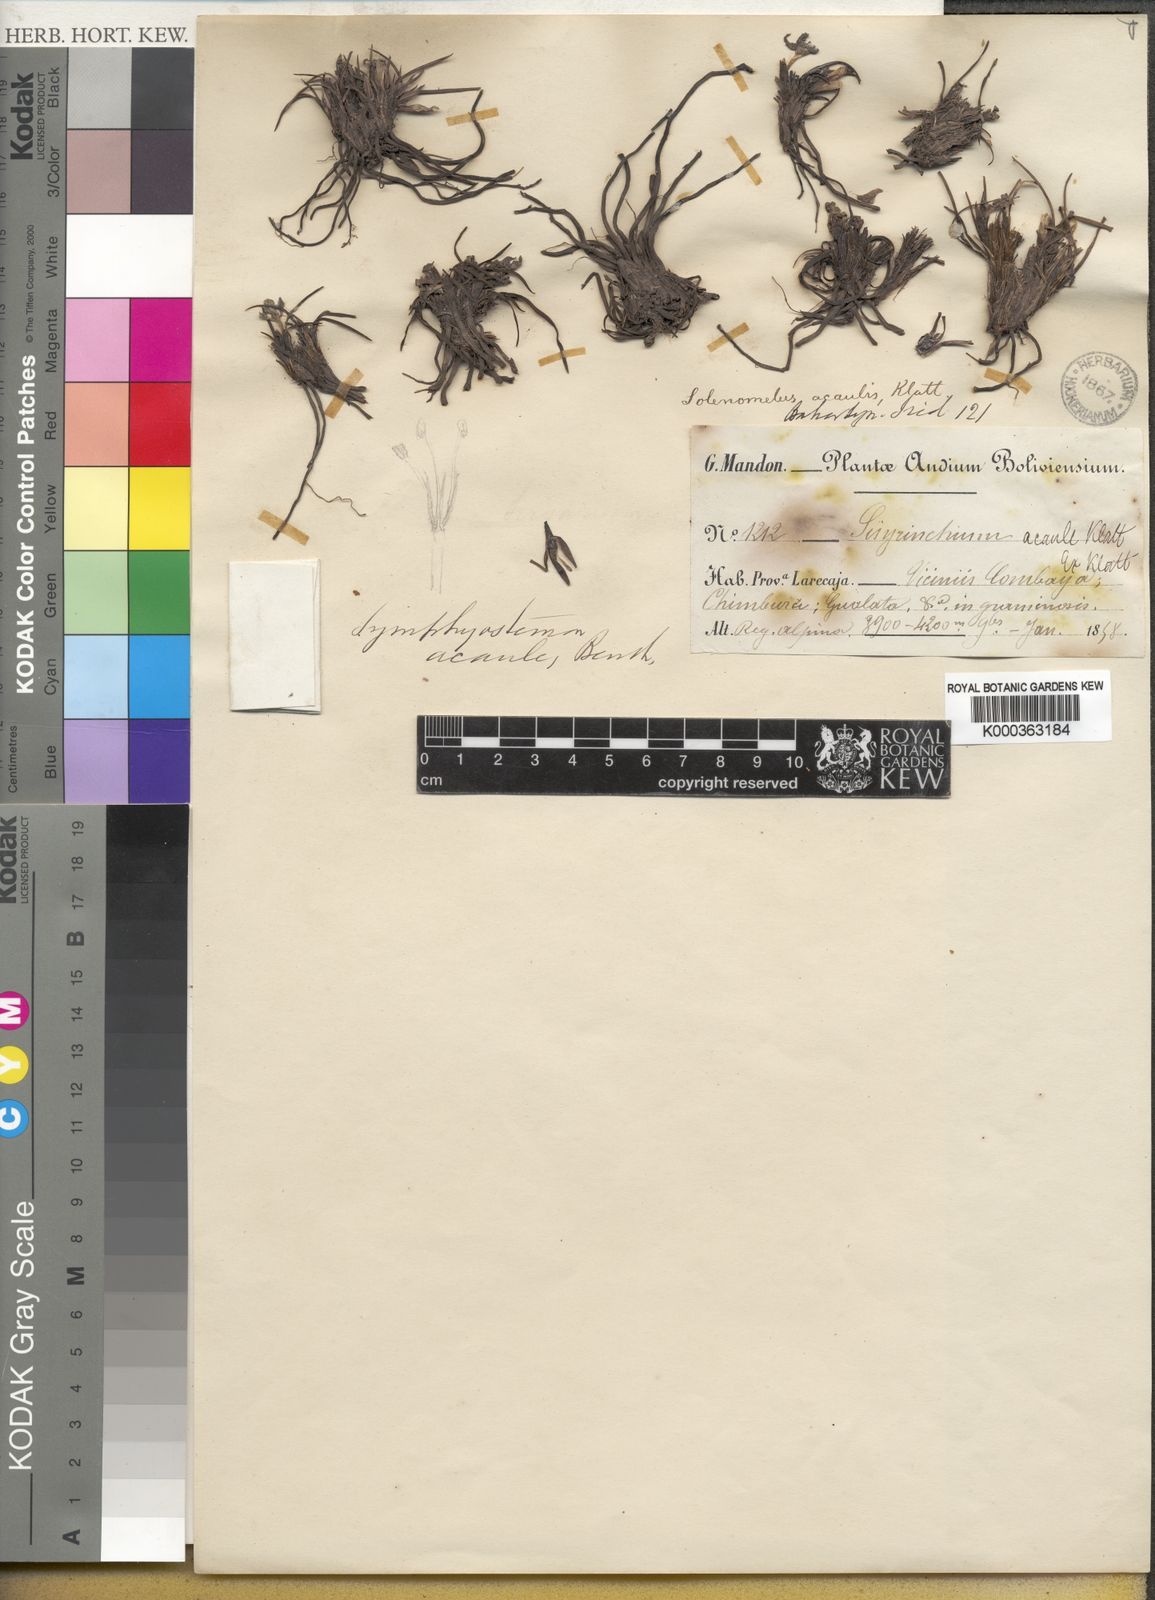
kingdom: Plantae
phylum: Tracheophyta
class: Liliopsida
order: Asparagales
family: Iridaceae
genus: Olsynium
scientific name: Olsynium
